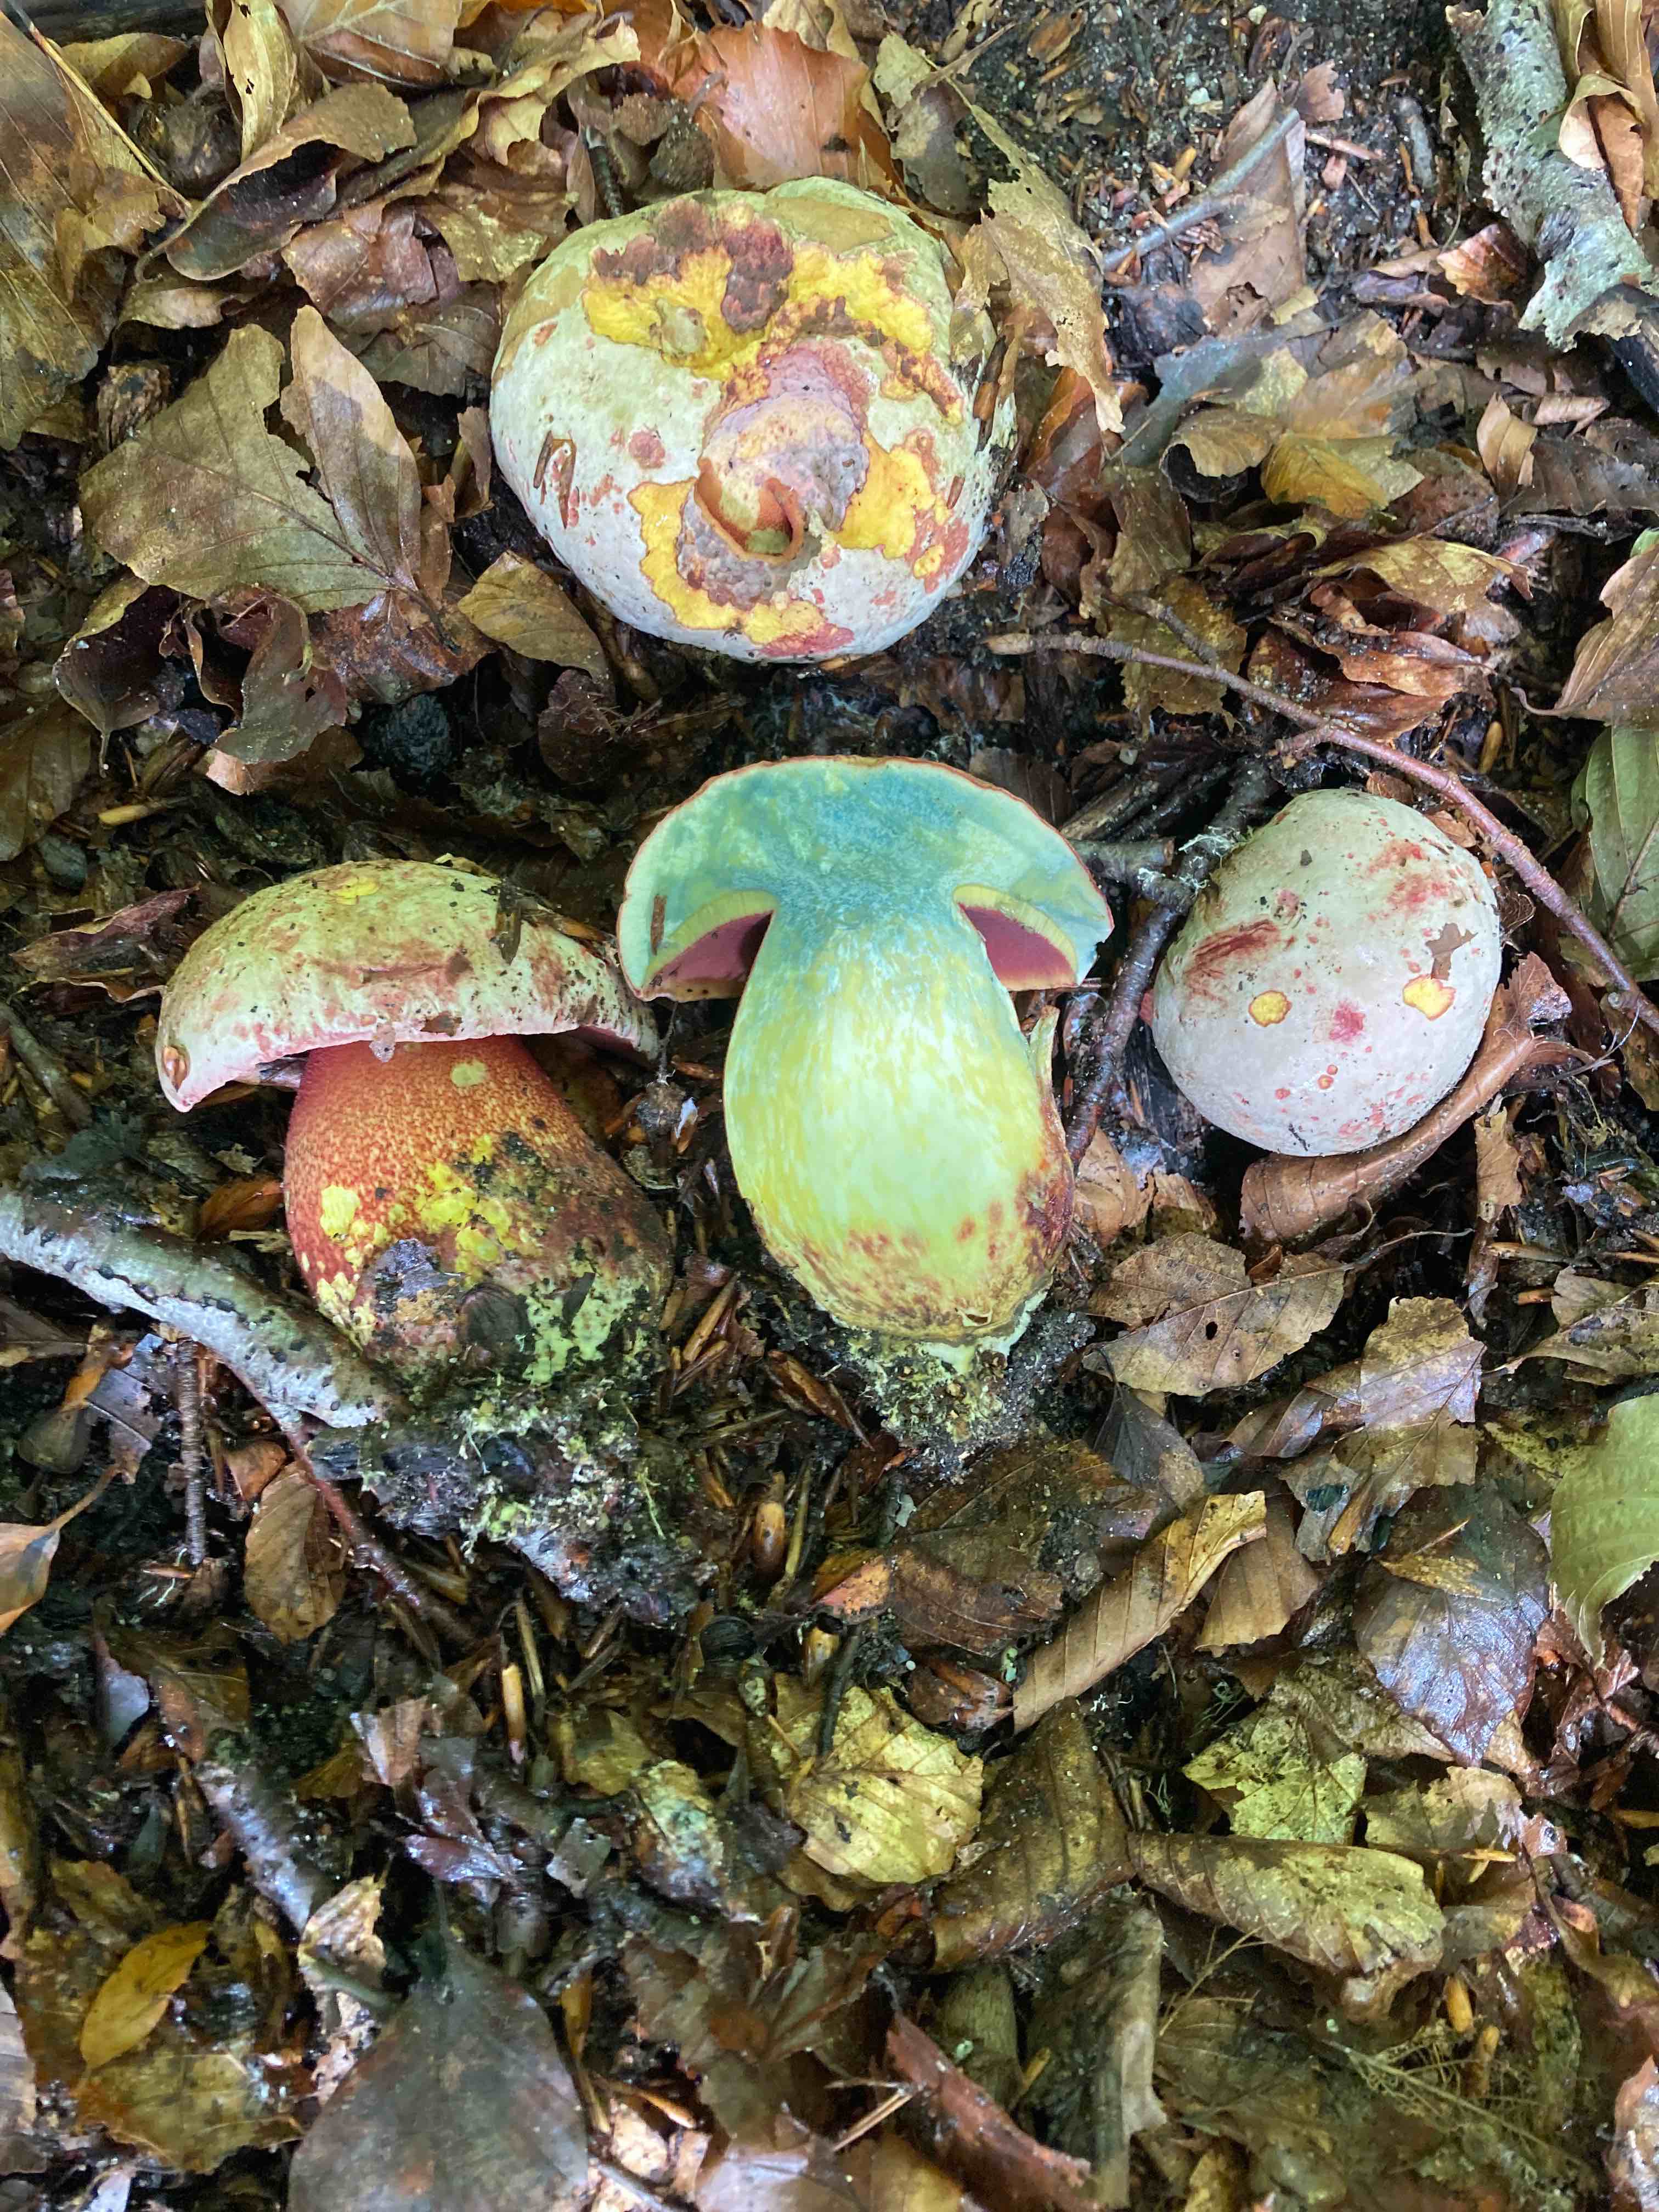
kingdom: Fungi
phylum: Basidiomycota
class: Agaricomycetes
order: Boletales
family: Boletaceae
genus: Rubroboletus
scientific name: Rubroboletus rhodoxanthus
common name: rødgul rørhat
